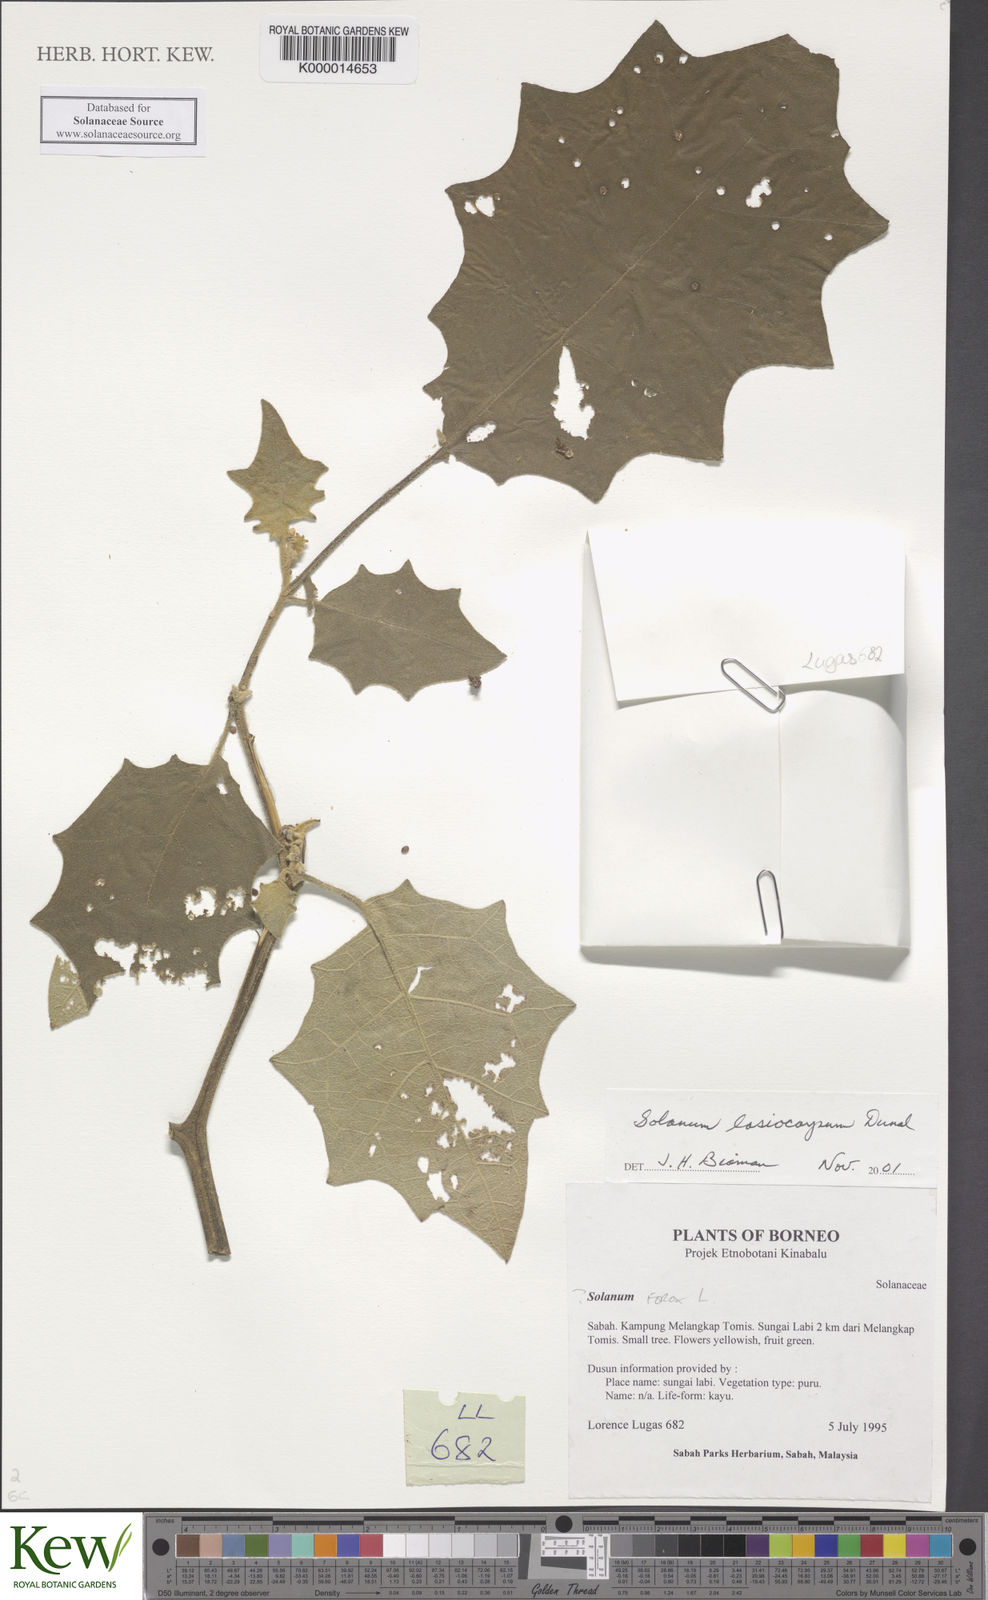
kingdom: Plantae
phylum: Tracheophyta
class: Magnoliopsida
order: Solanales
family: Solanaceae
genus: Solanum
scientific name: Solanum lasiocarpum
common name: Indian nightshade
